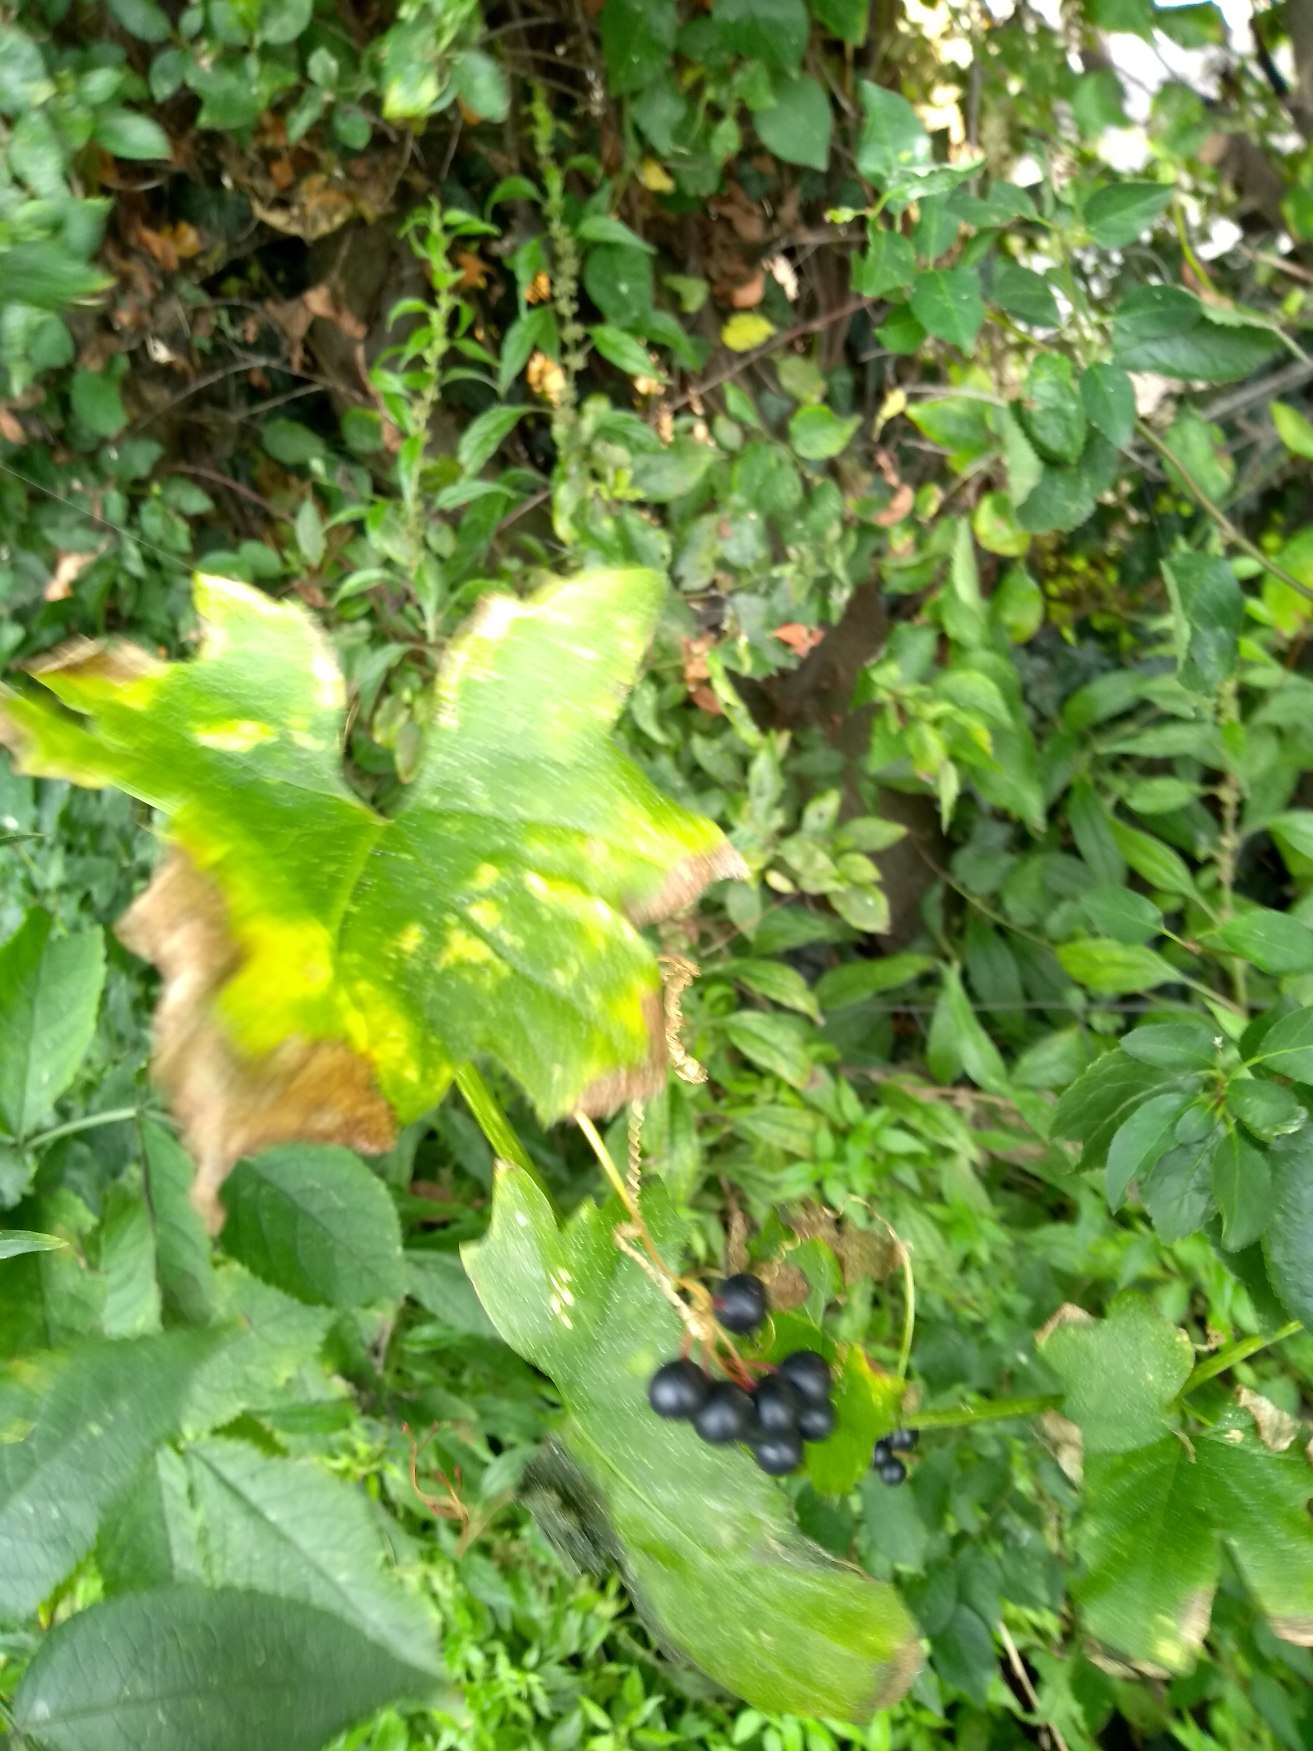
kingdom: Plantae
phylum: Tracheophyta
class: Magnoliopsida
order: Cucurbitales
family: Cucurbitaceae
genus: Bryonia
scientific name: Bryonia alba
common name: Enbo galdebær
